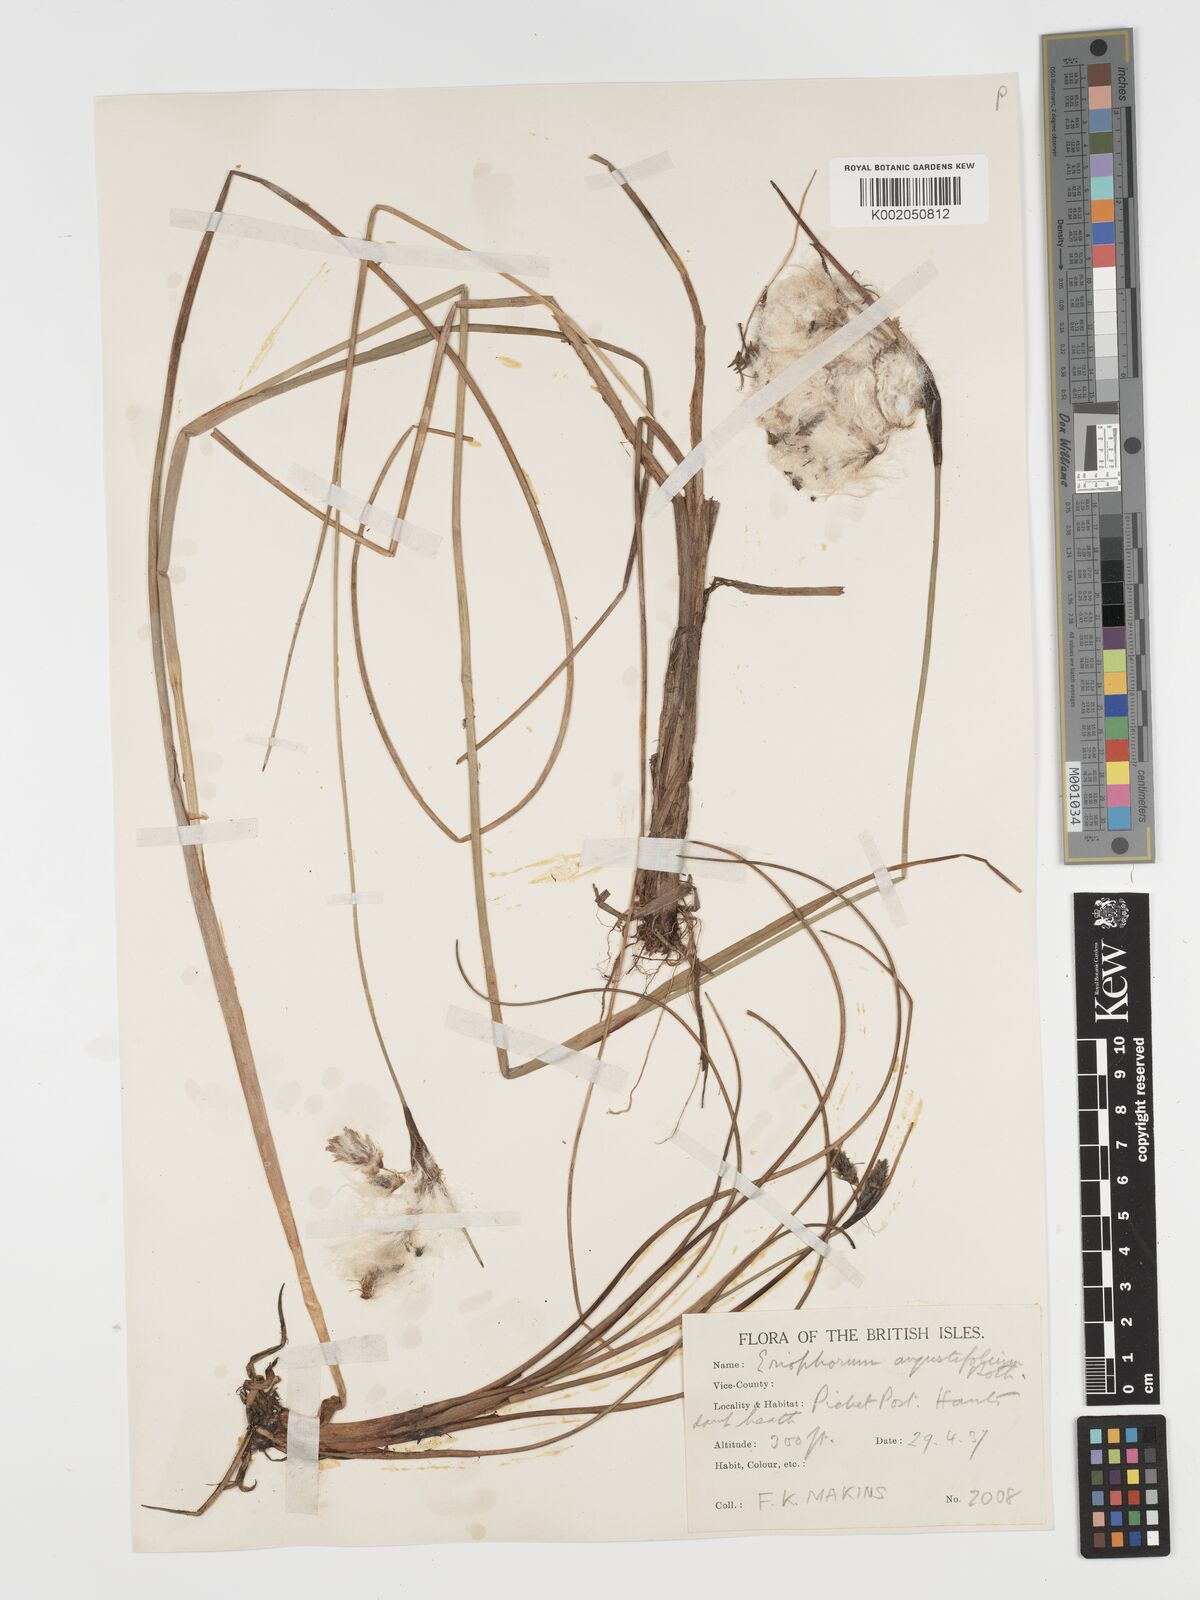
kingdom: Plantae
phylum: Tracheophyta
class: Liliopsida
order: Poales
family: Cyperaceae
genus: Eriophorum
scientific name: Eriophorum angustifolium
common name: Common cottongrass
